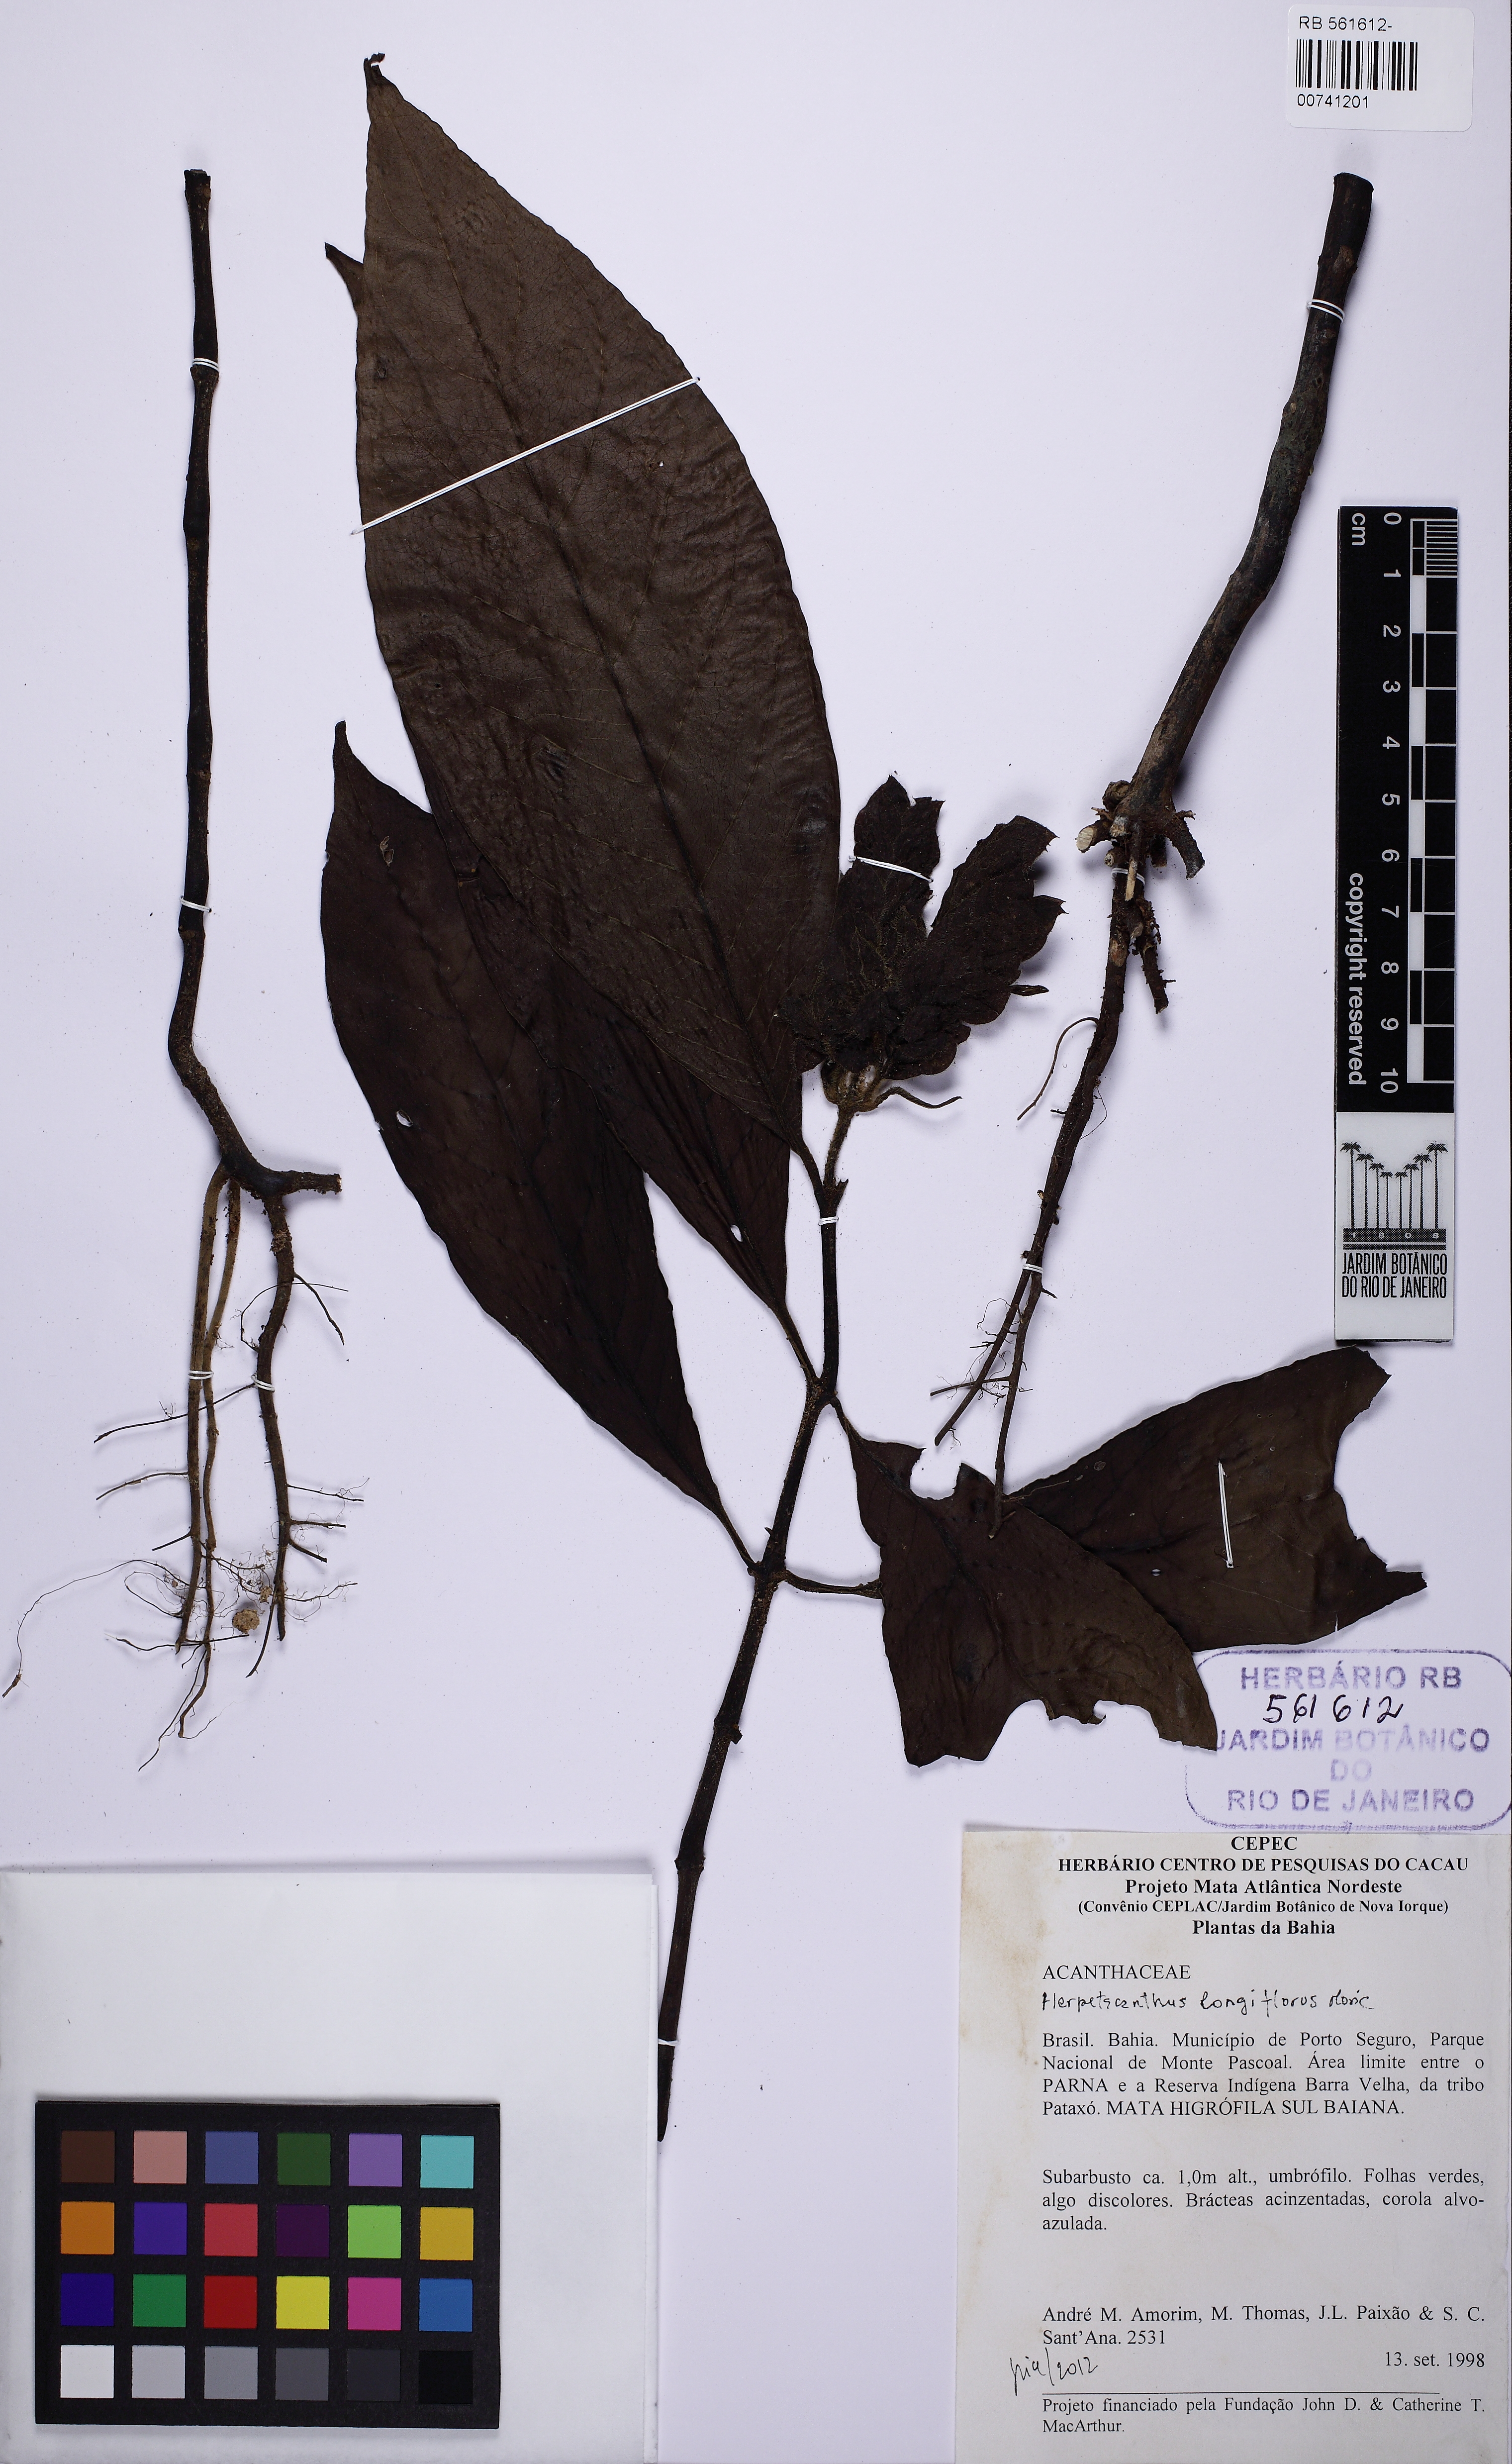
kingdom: Plantae
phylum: Tracheophyta
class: Magnoliopsida
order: Lamiales
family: Acanthaceae
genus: Herpetacanthus
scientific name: Herpetacanthus longiflorus
